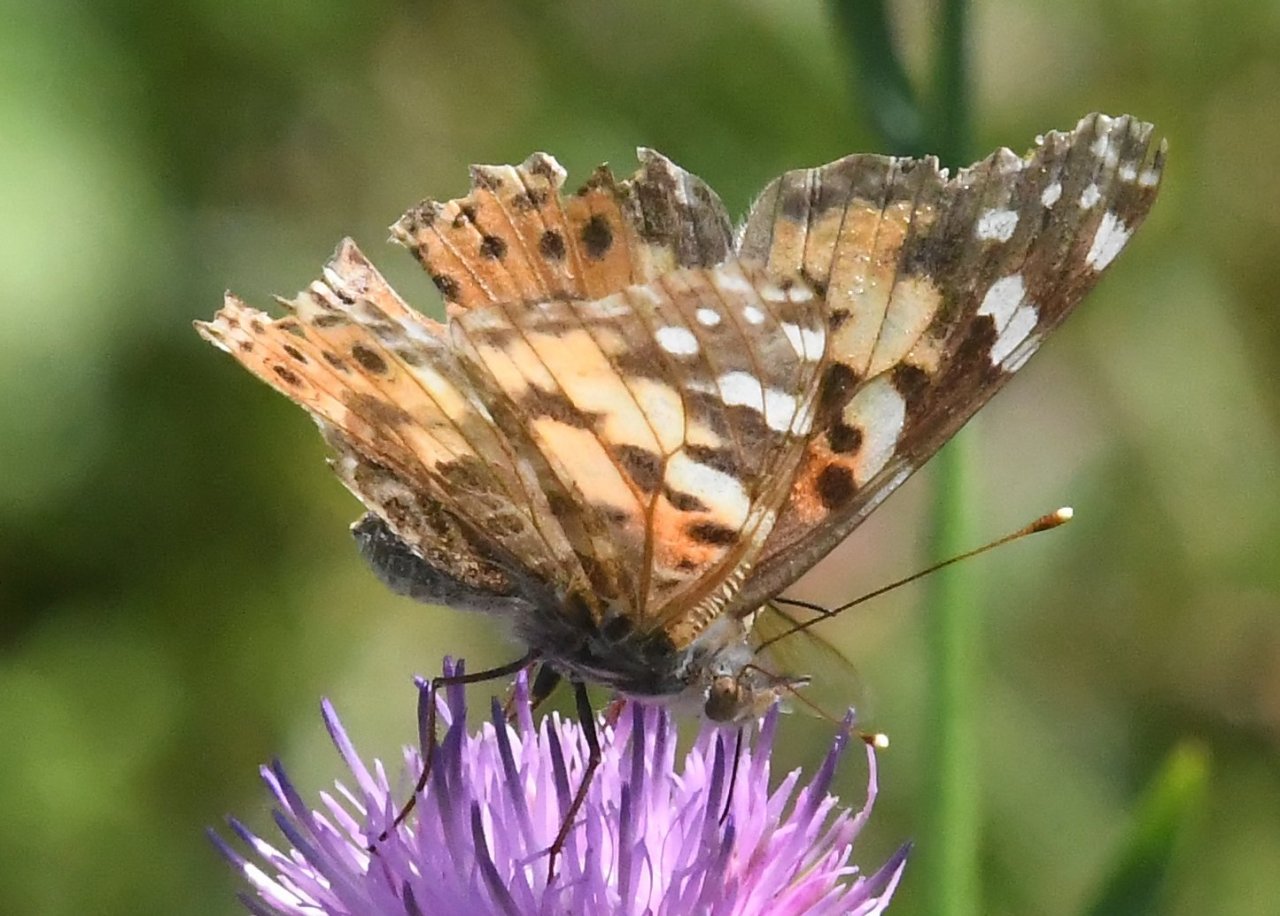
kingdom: Animalia
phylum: Arthropoda
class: Insecta
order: Lepidoptera
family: Nymphalidae
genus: Vanessa
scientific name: Vanessa cardui
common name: Painted Lady
